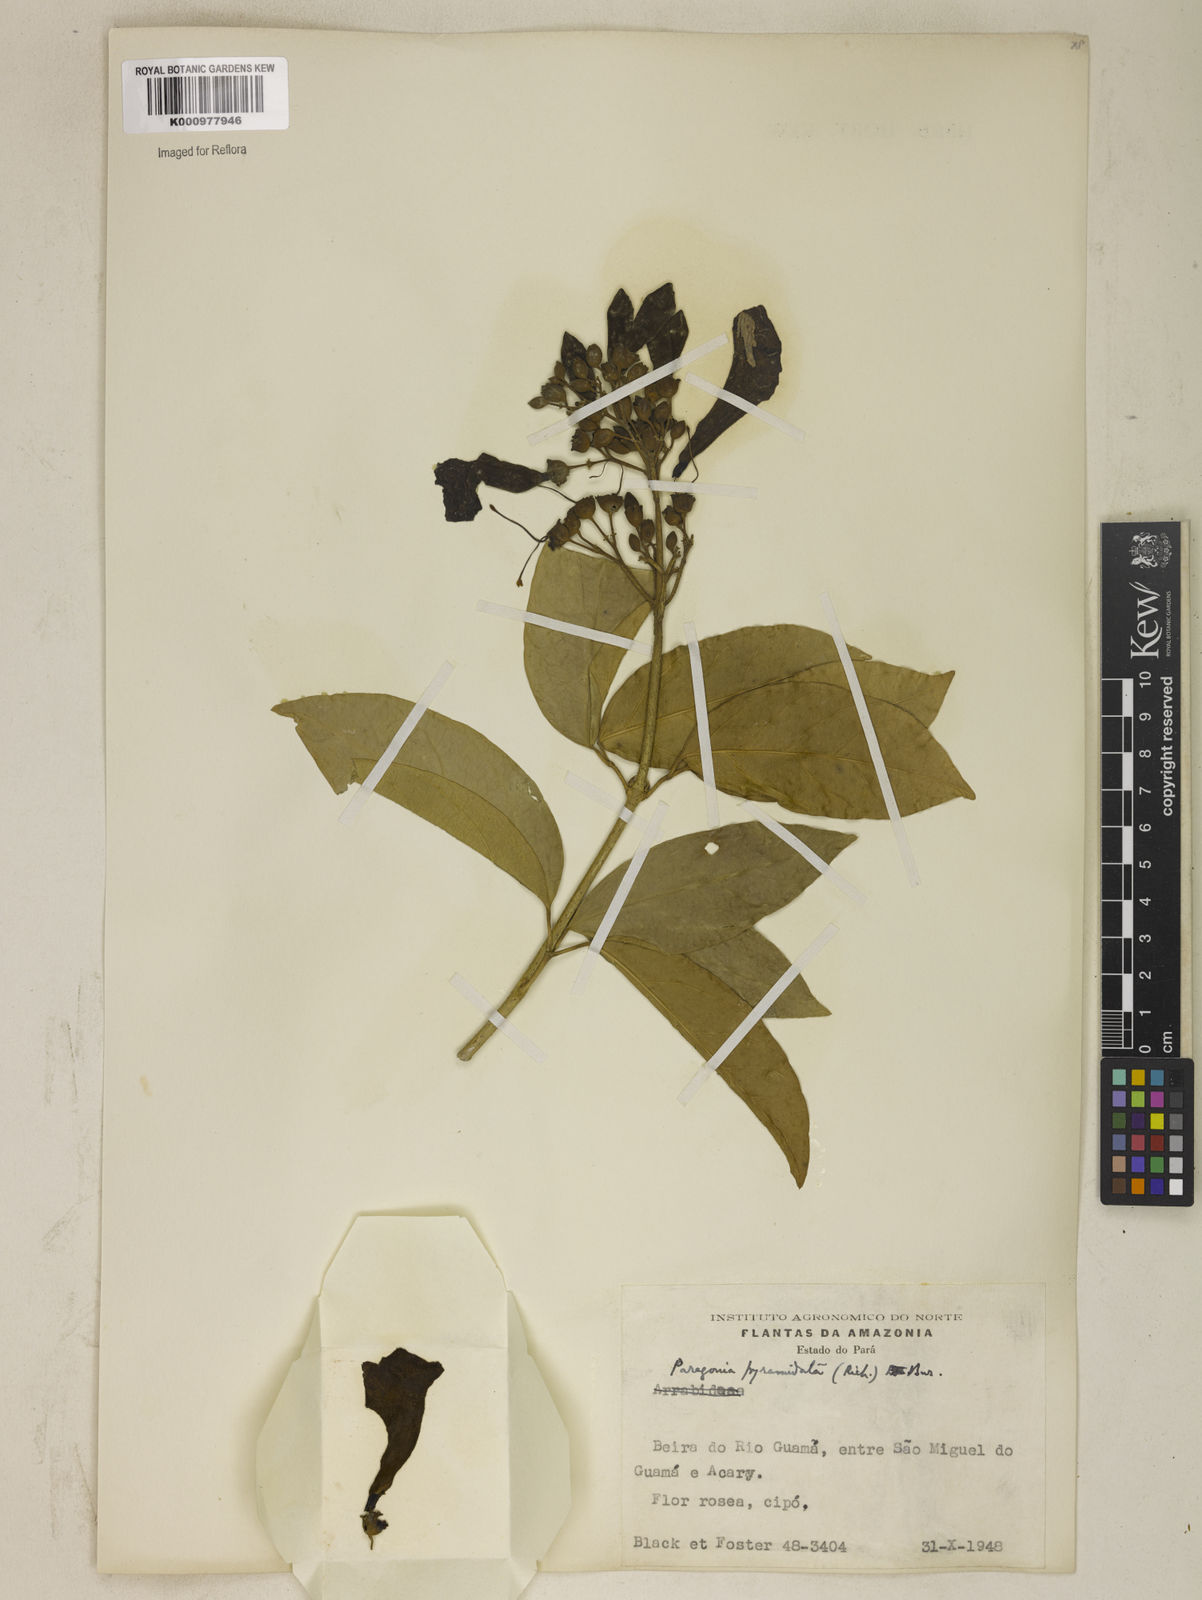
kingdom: Plantae
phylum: Tracheophyta
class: Magnoliopsida
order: Lamiales
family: Bignoniaceae
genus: Tanaecium
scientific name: Tanaecium pyramidatum
